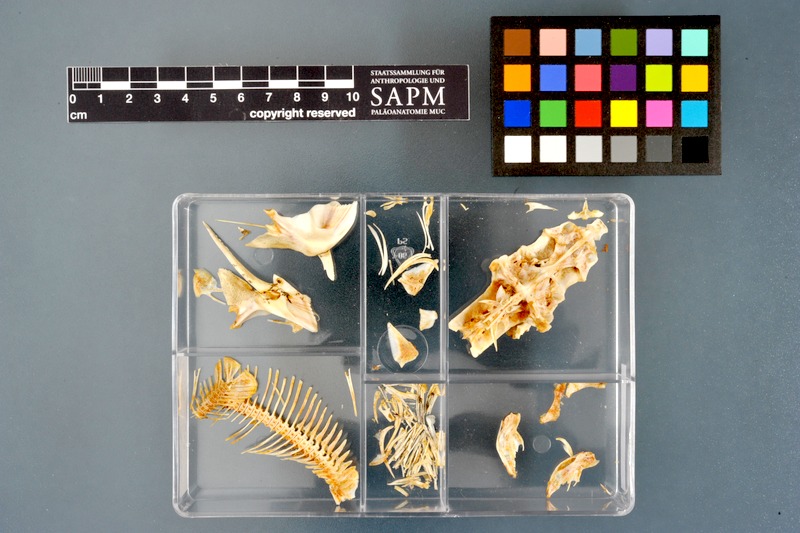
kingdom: Animalia
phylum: Chordata
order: Siluriformes
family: Mochokidae
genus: Synodontis
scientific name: Synodontis frontosus
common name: Sudan squeaker
